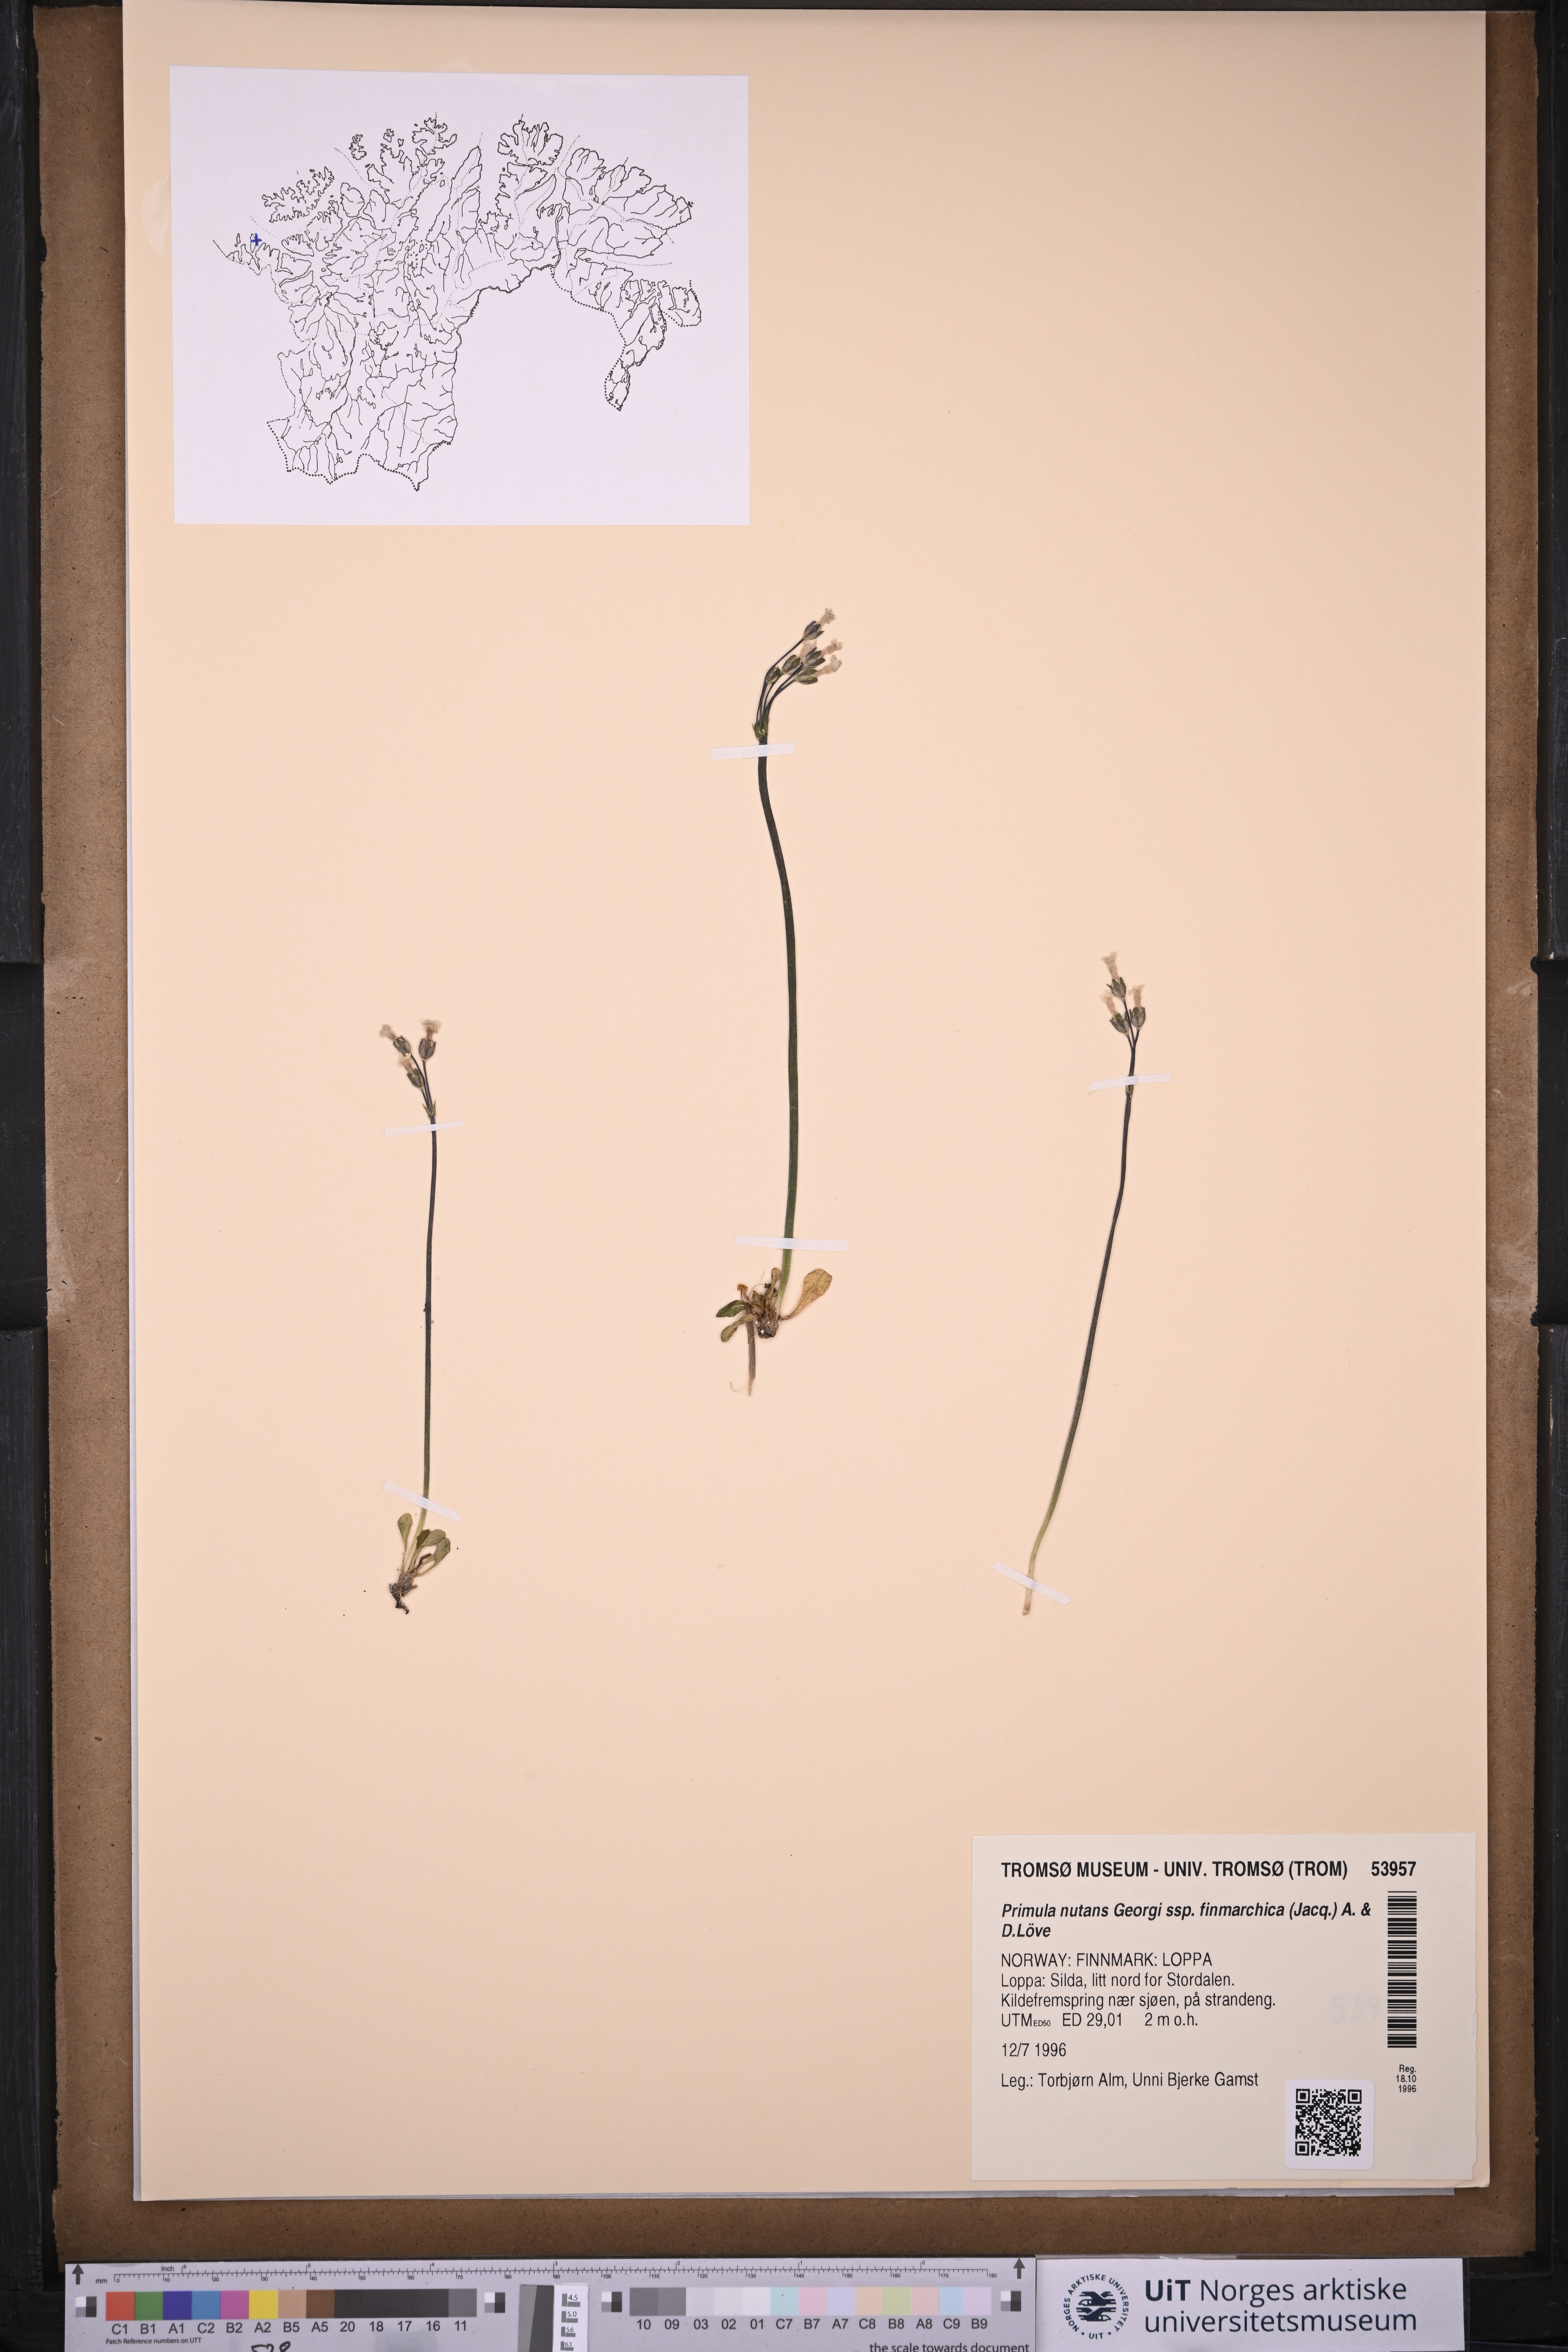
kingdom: Plantae
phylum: Tracheophyta
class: Magnoliopsida
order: Ericales
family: Primulaceae
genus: Primula
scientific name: Primula nutans
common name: Siberian primrose
